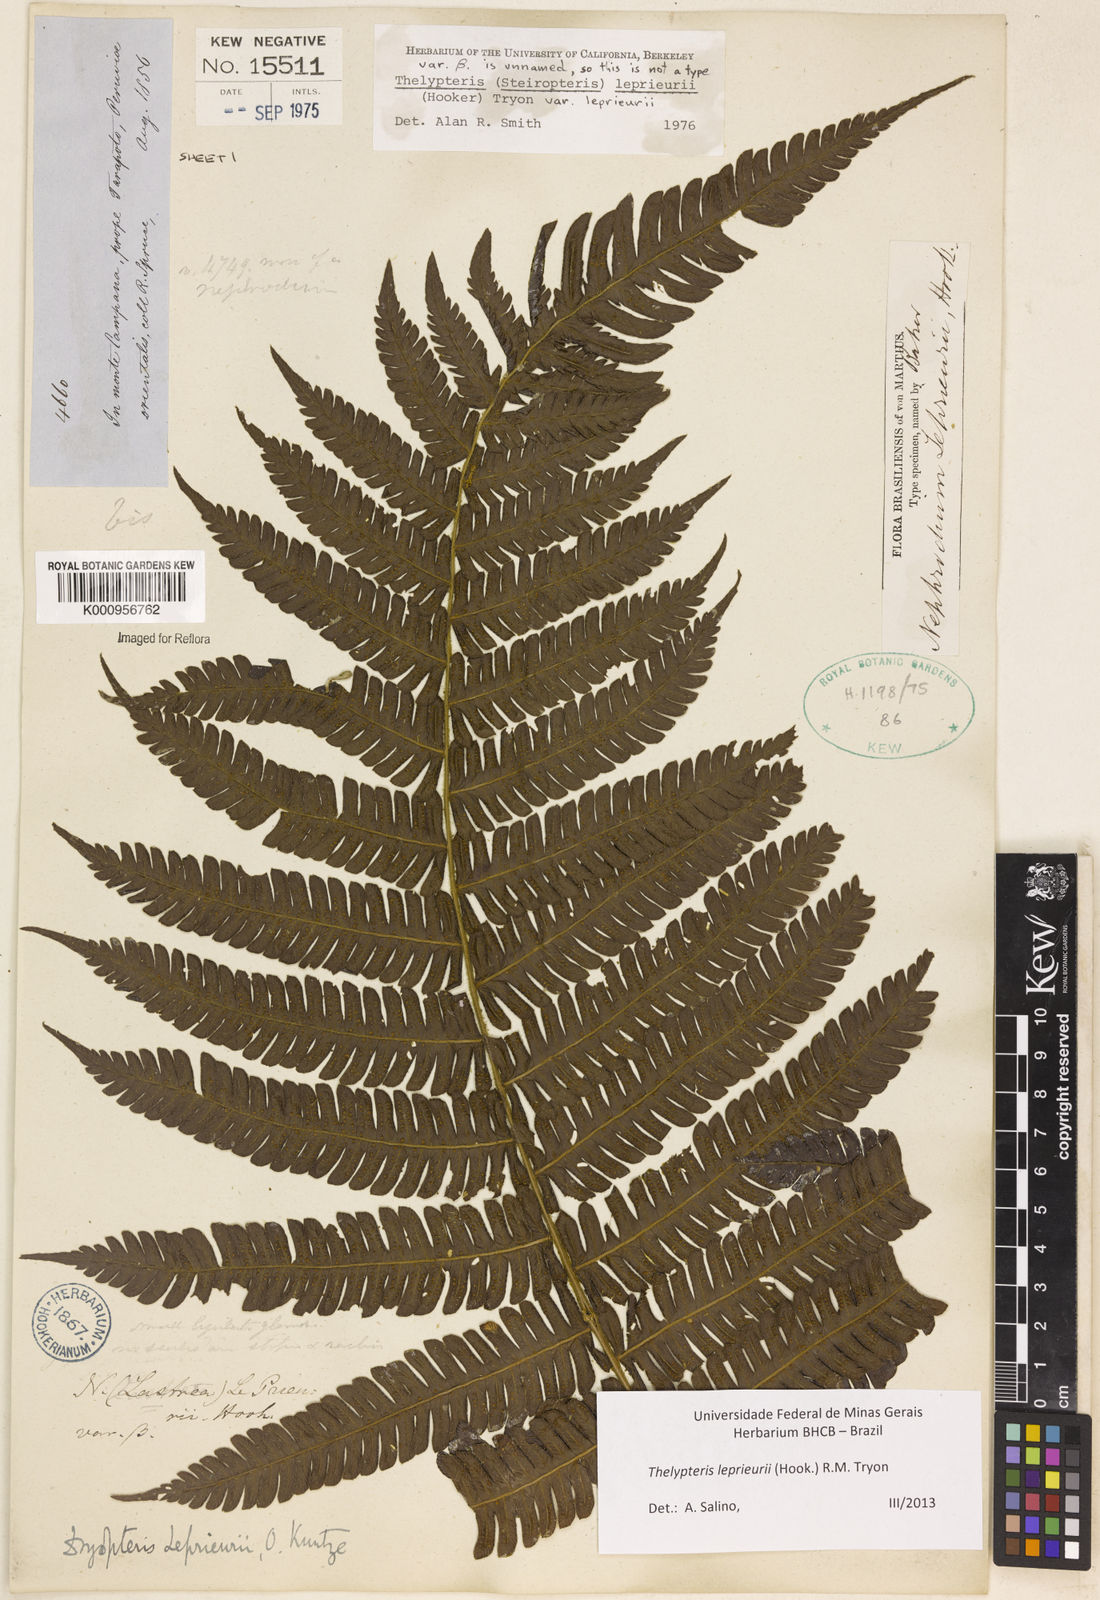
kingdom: Plantae
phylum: Tracheophyta
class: Polypodiopsida
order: Polypodiales
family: Thelypteridaceae
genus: Steiropteris
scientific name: Steiropteris leprieurii
